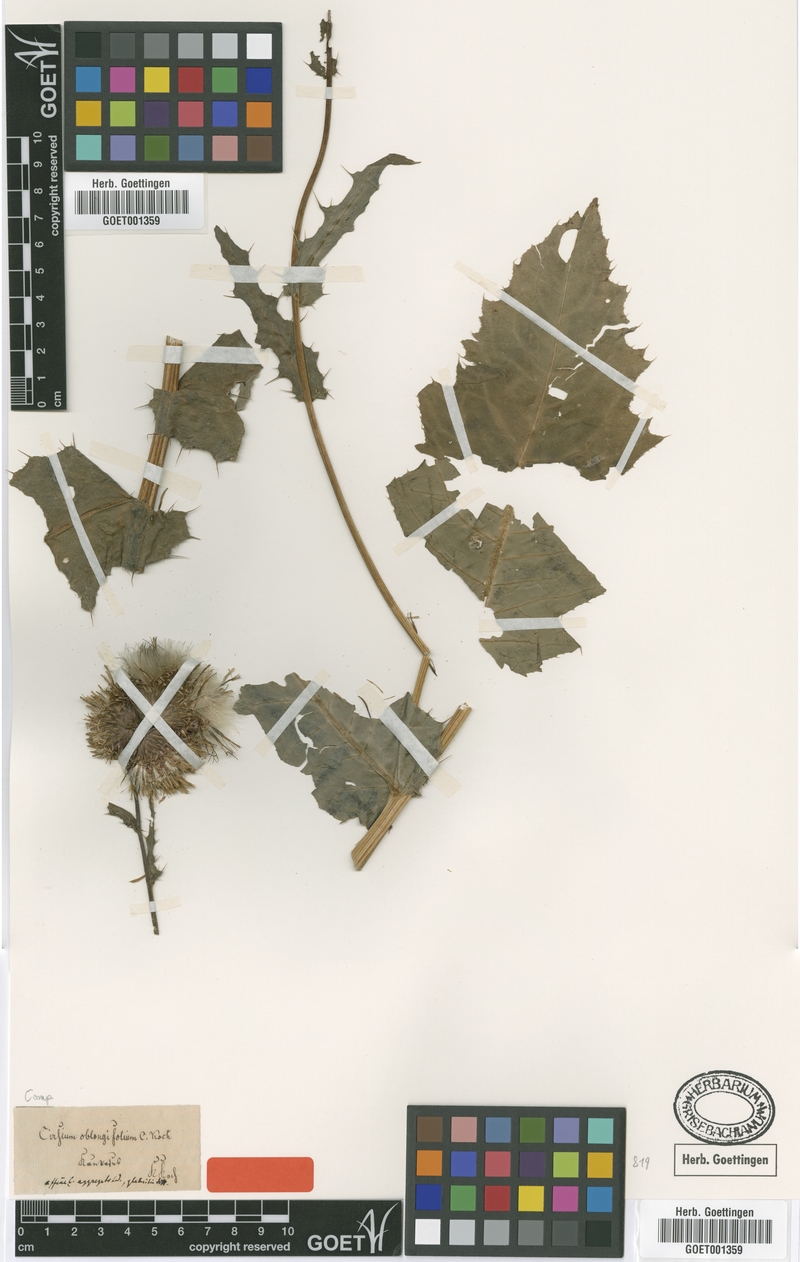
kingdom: Plantae
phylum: Tracheophyta
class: Magnoliopsida
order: Asterales
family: Asteraceae
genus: Cirsium
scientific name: Cirsium oblongifolium
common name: Oblong-leaved thistle
